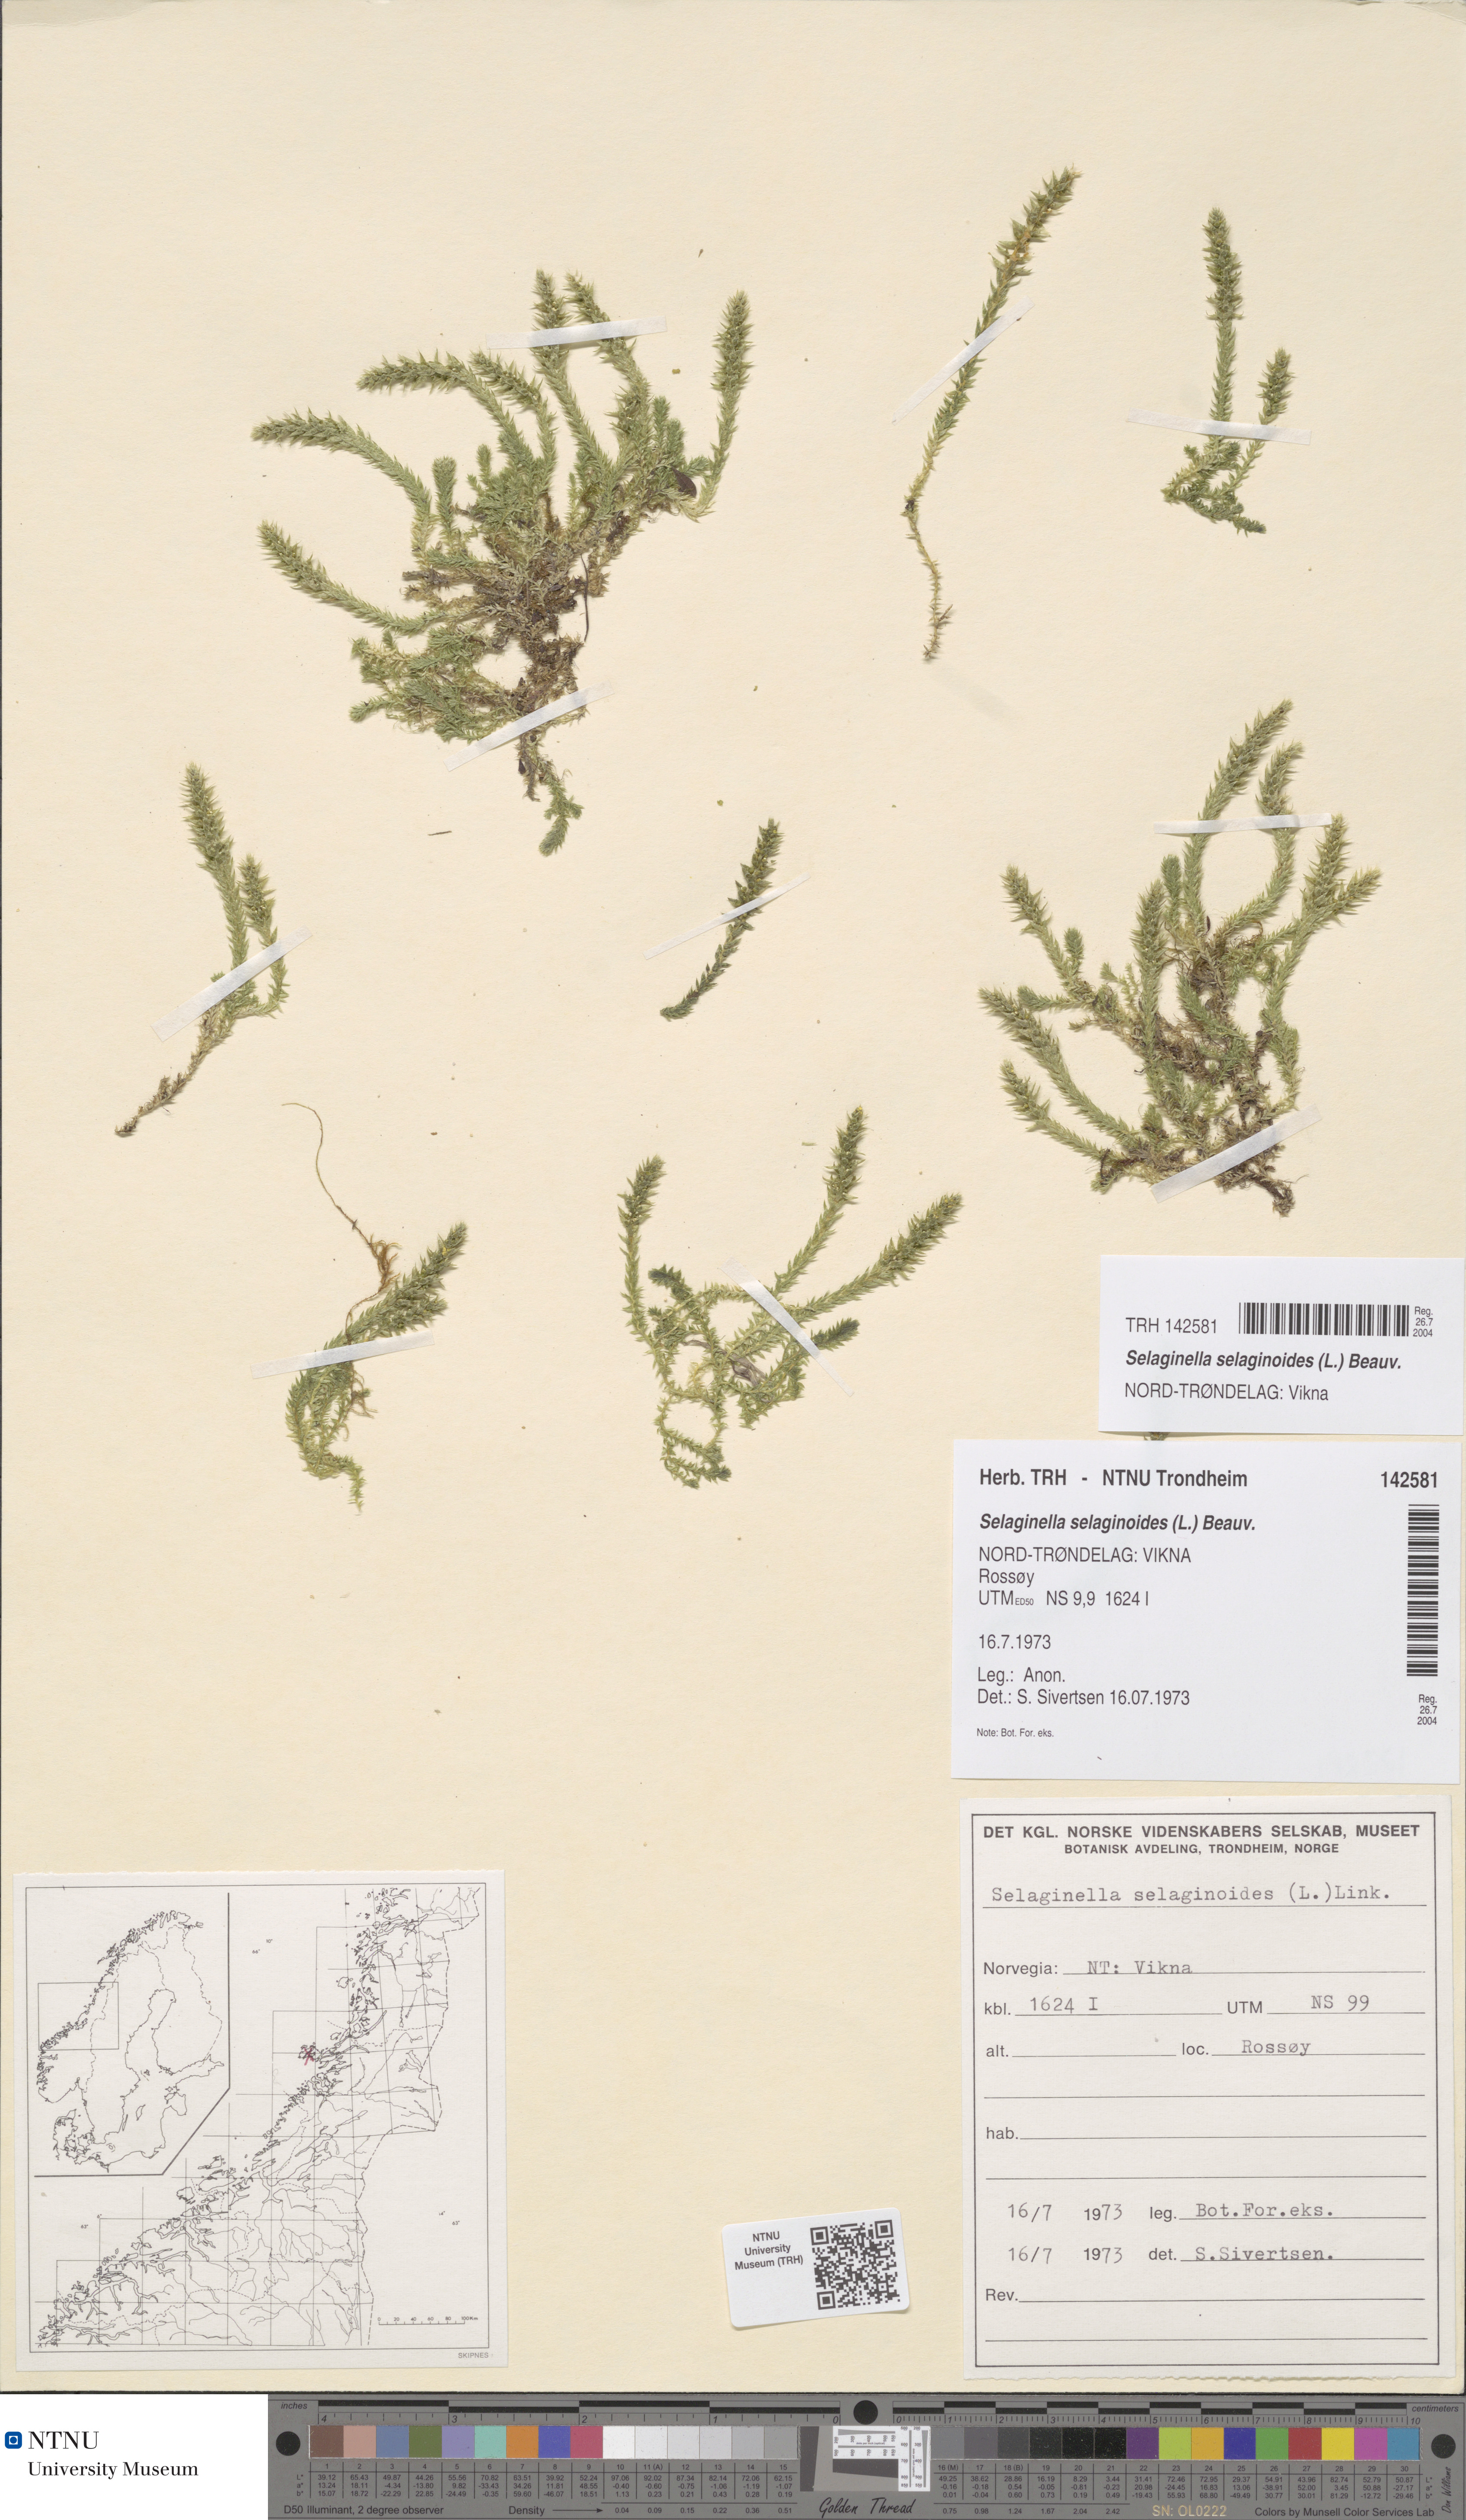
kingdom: Plantae
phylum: Tracheophyta
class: Lycopodiopsida
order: Selaginellales
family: Selaginellaceae
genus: Selaginella
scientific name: Selaginella selaginoides
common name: Prickly mountain-moss
